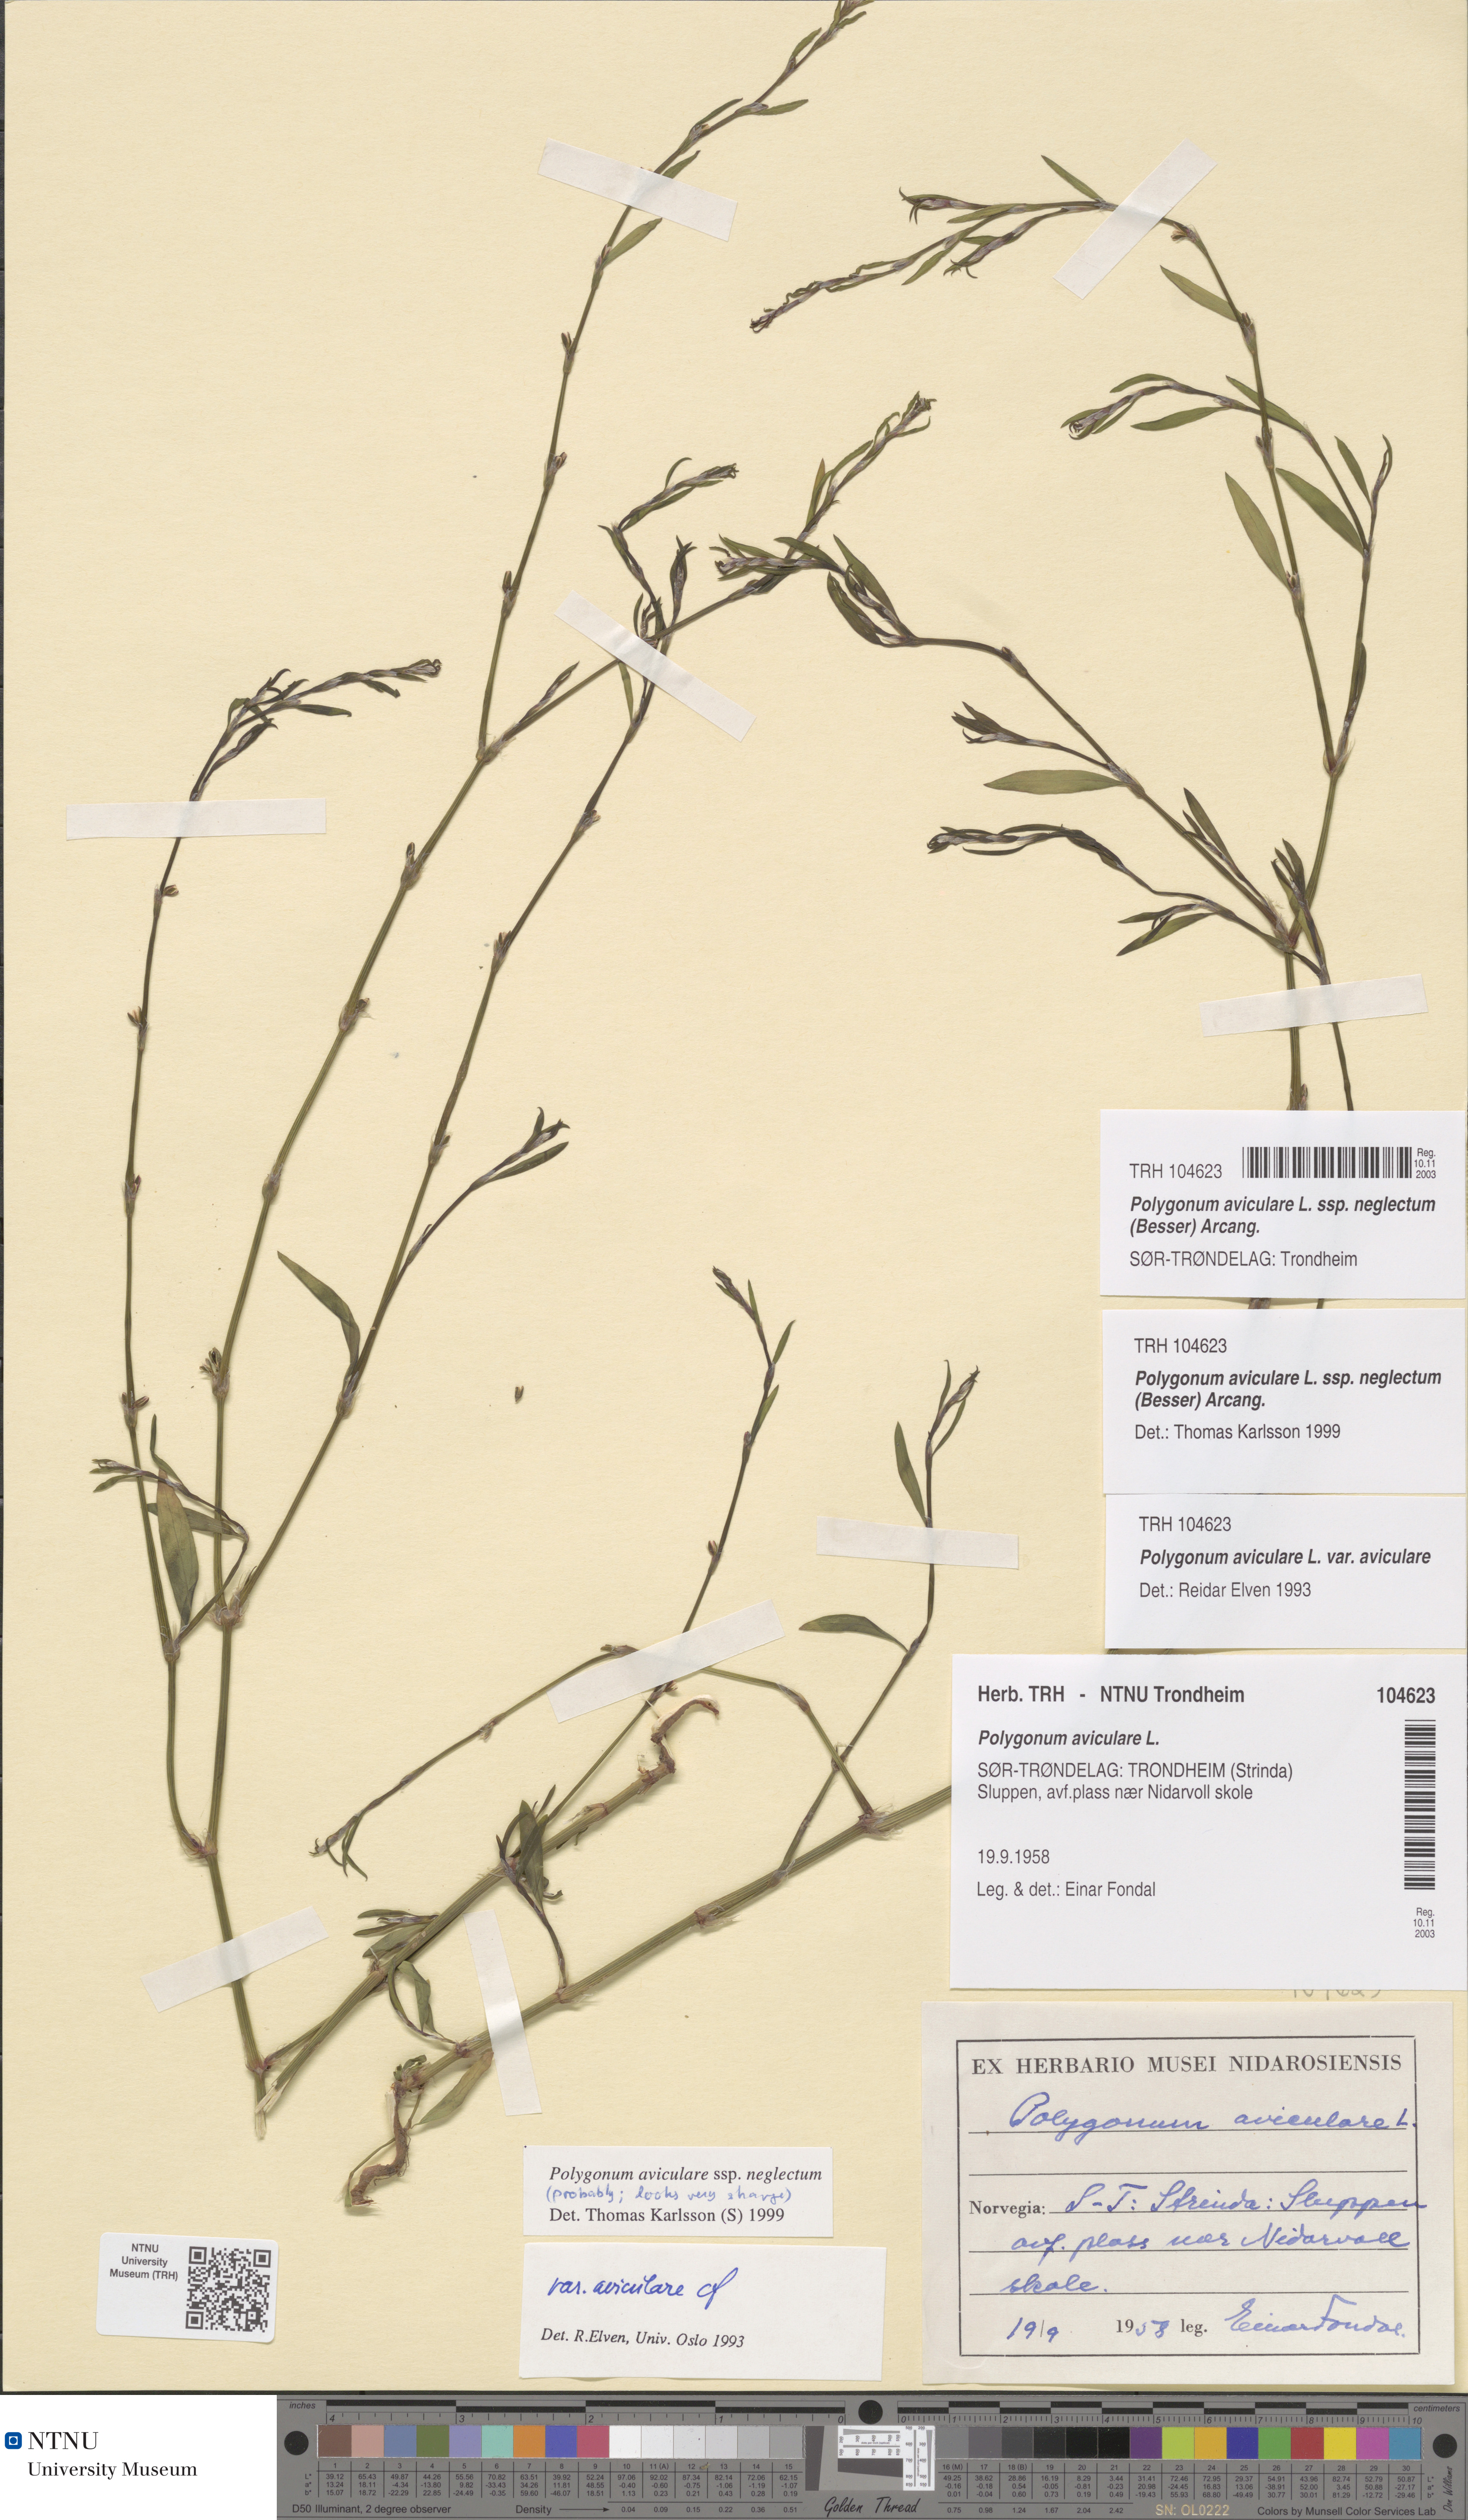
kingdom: Plantae
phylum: Tracheophyta
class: Magnoliopsida
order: Caryophyllales
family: Polygonaceae
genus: Polygonum
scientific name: Polygonum aviculare
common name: Prostrate knotweed
